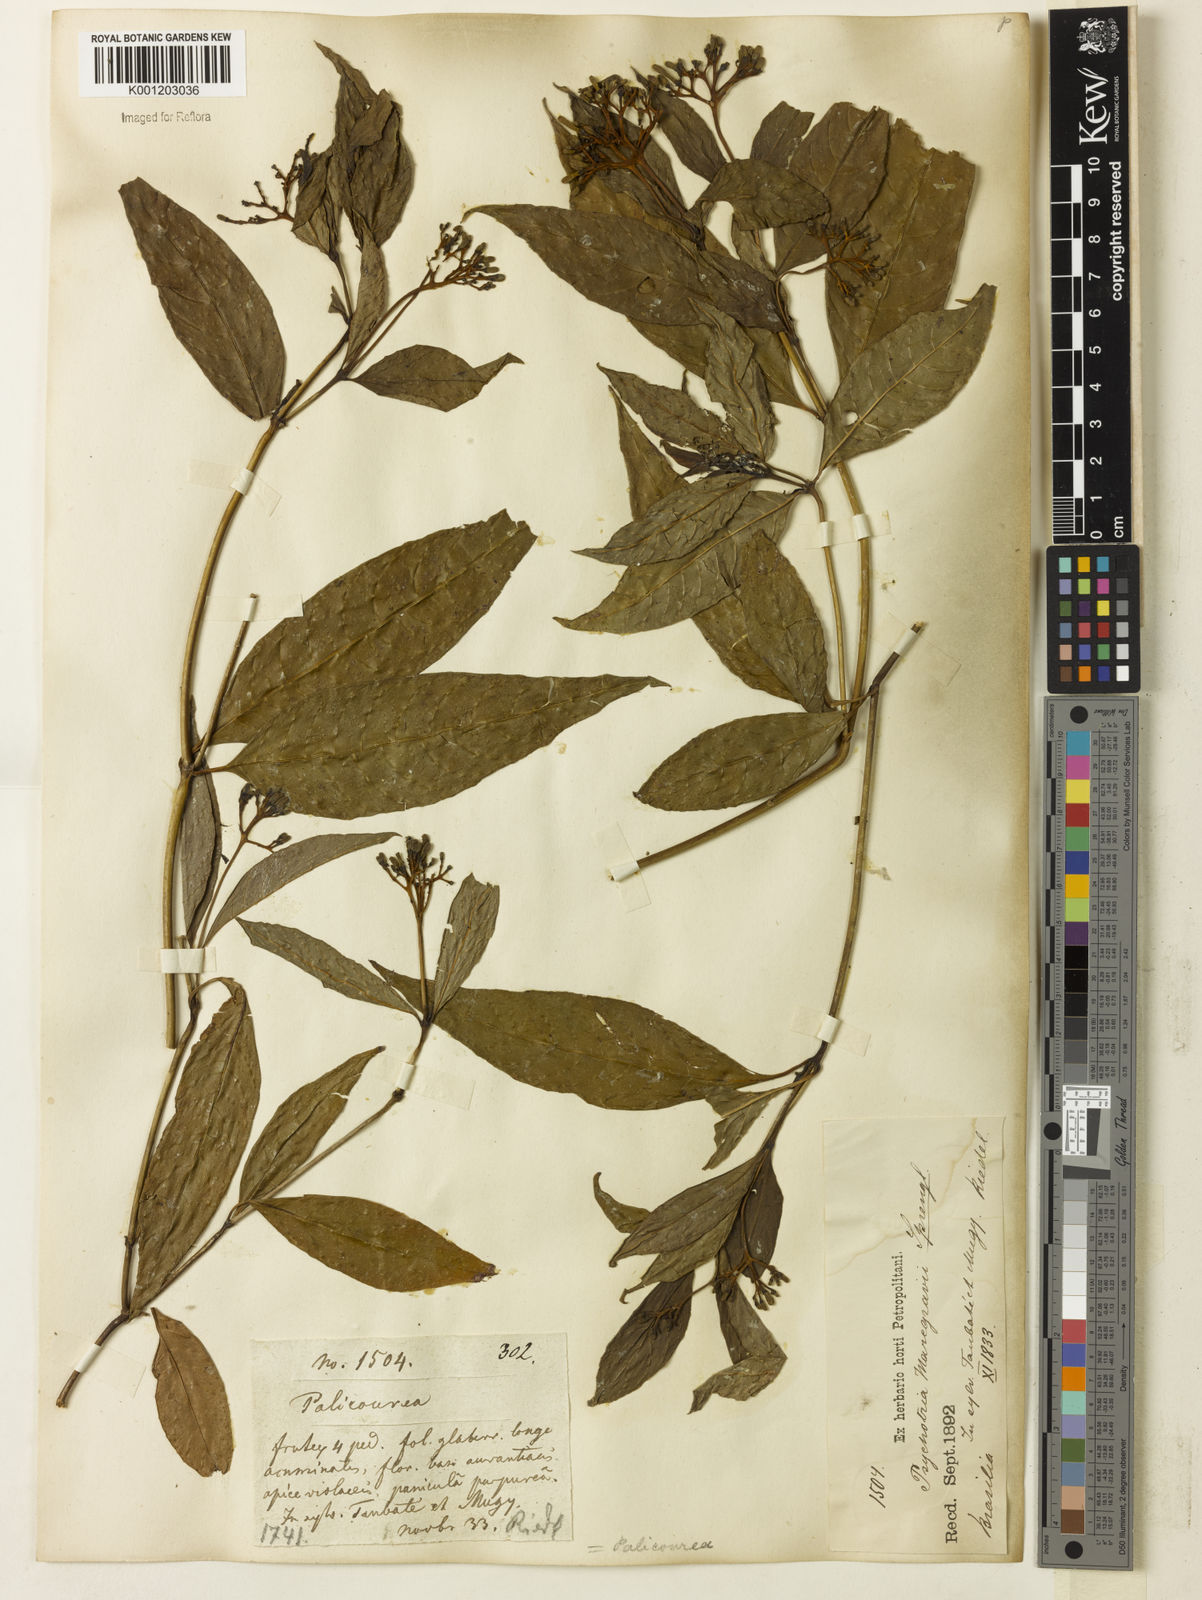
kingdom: Plantae
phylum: Tracheophyta
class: Magnoliopsida
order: Gentianales
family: Rubiaceae
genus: Palicourea
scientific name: Palicourea marcgravii
